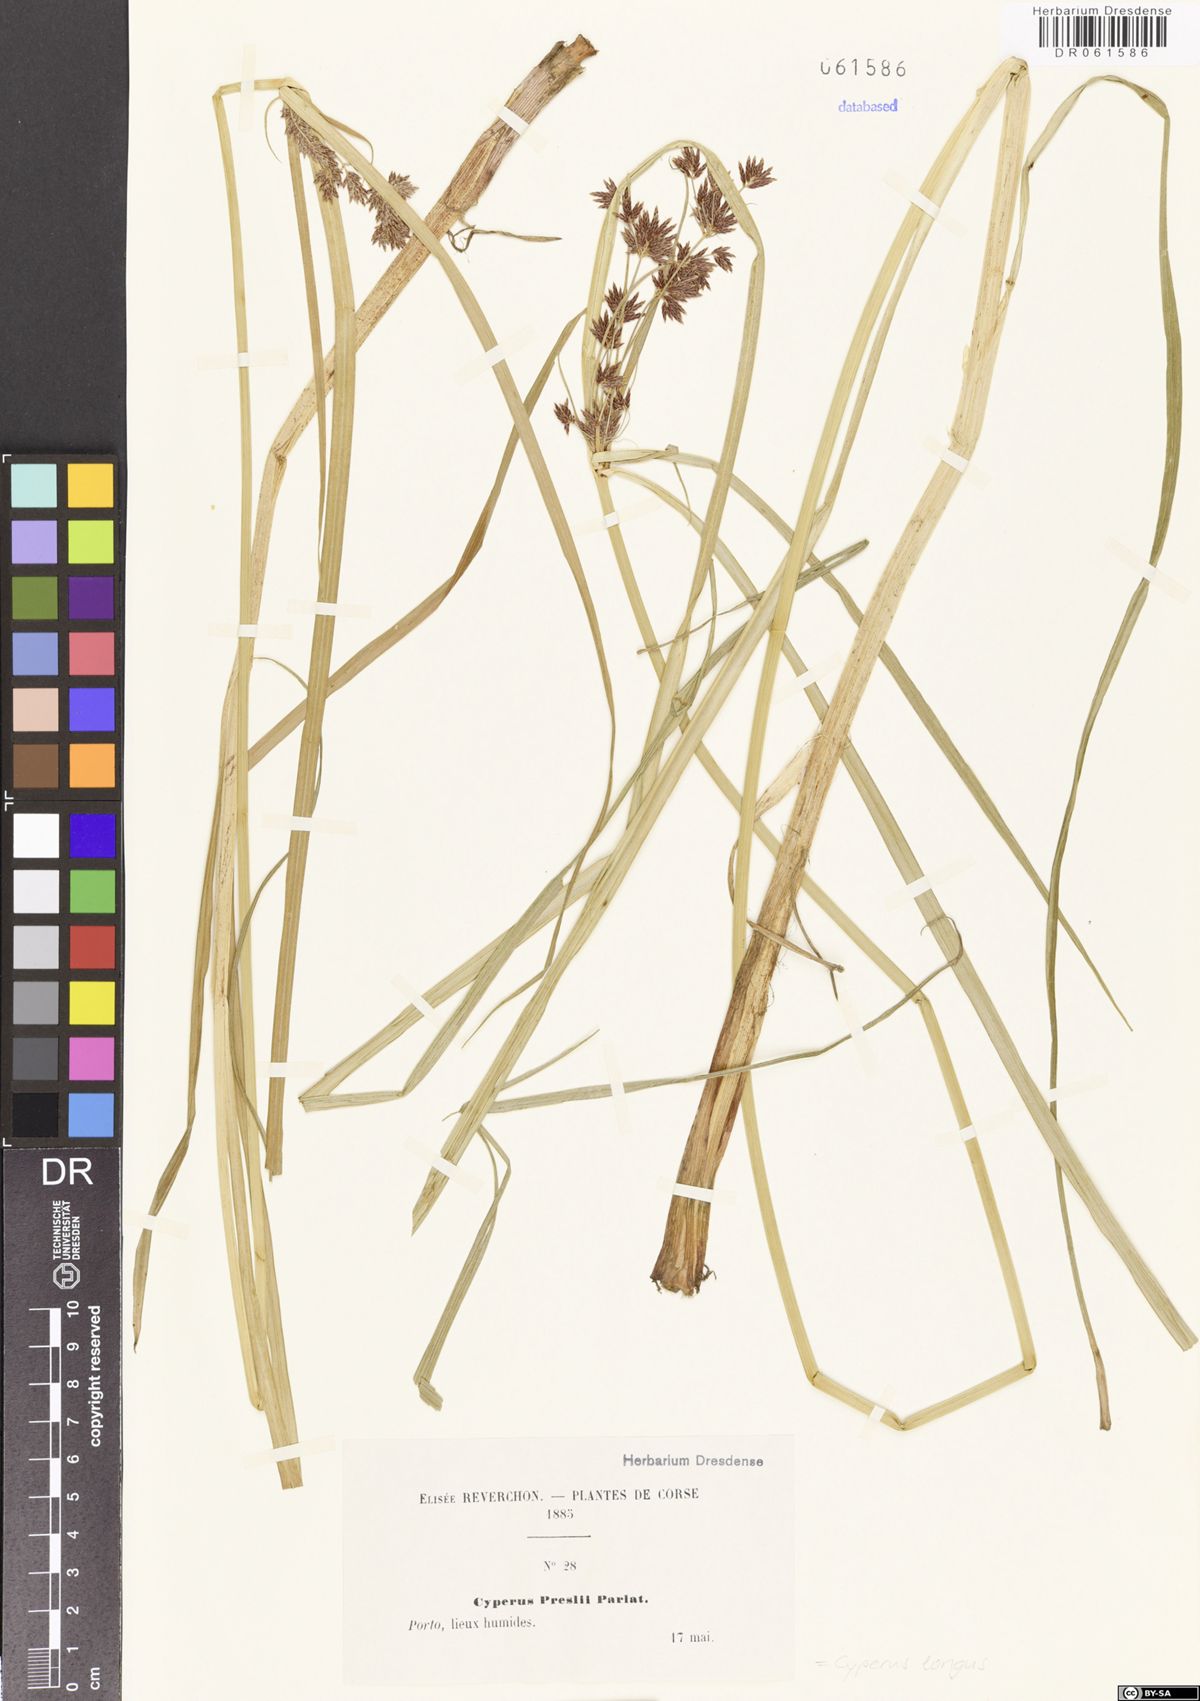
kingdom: Plantae
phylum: Tracheophyta
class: Liliopsida
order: Poales
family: Cyperaceae
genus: Cyperus
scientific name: Cyperus longus
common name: Galingale
